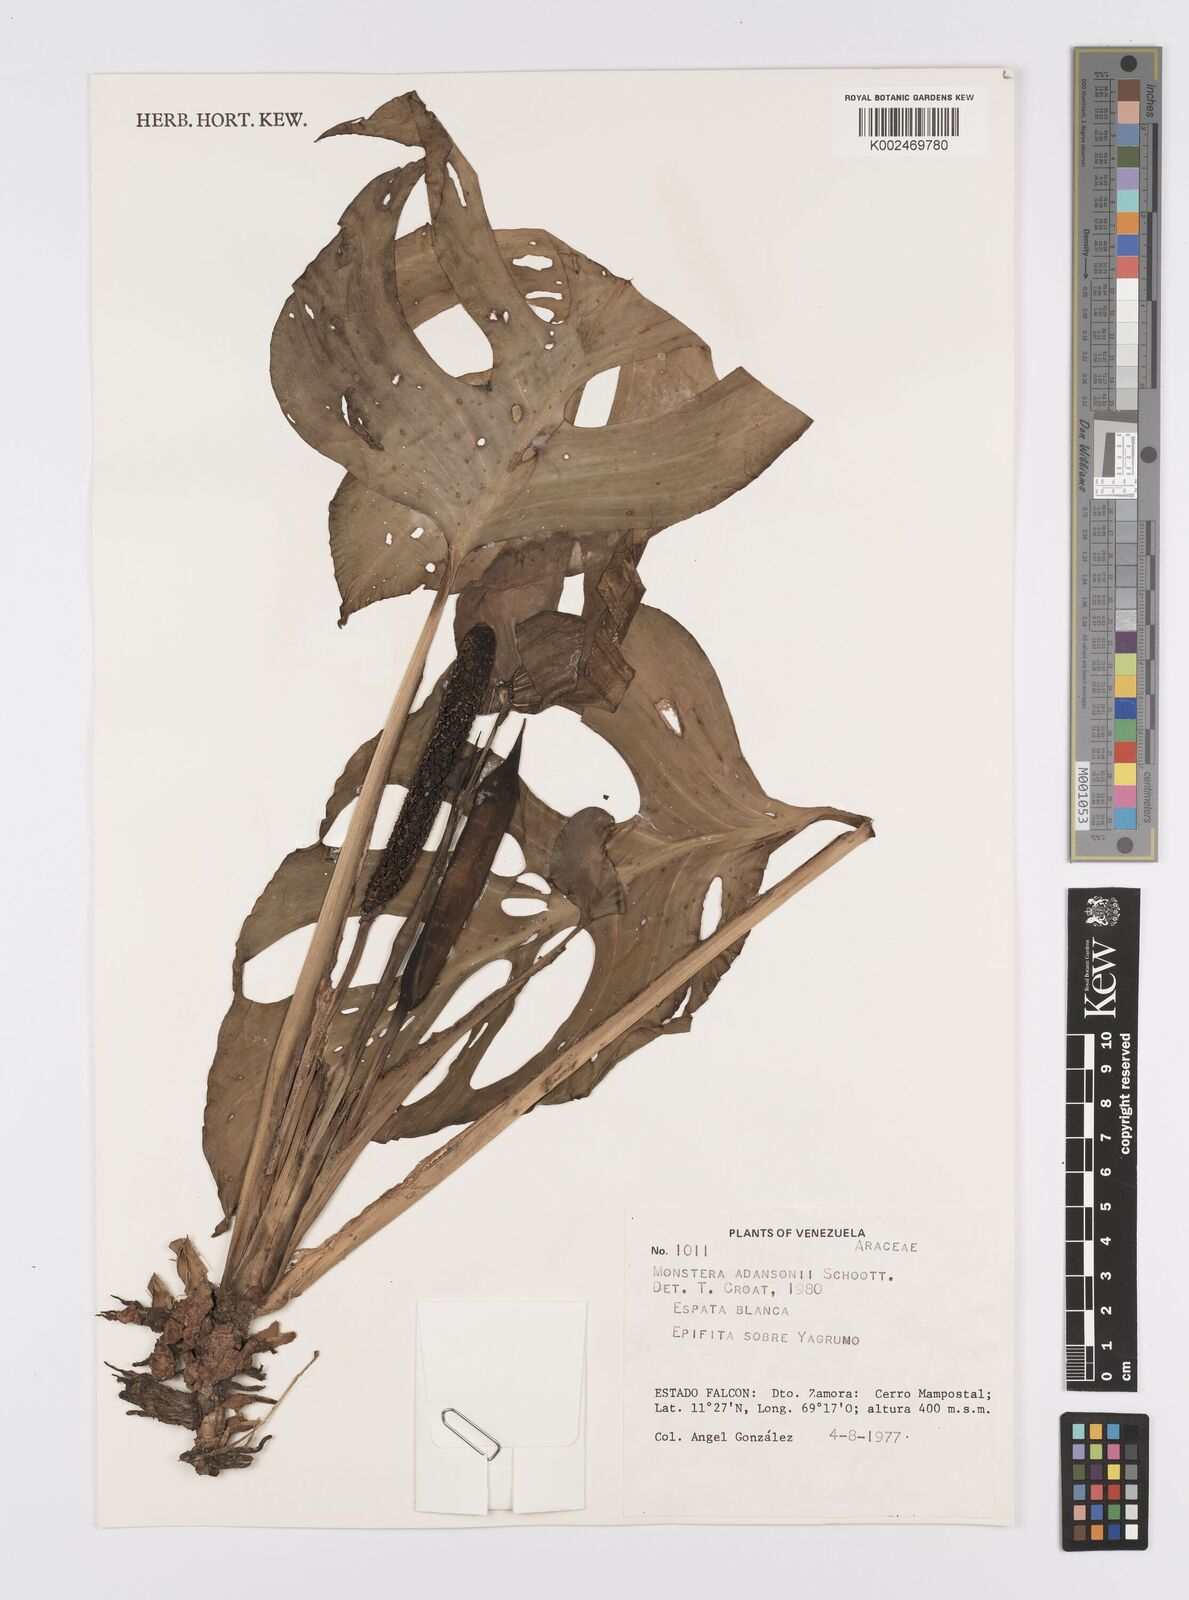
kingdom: Plantae
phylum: Tracheophyta
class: Liliopsida
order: Alismatales
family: Araceae
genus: Monstera
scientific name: Monstera adansonii
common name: Tarovine
